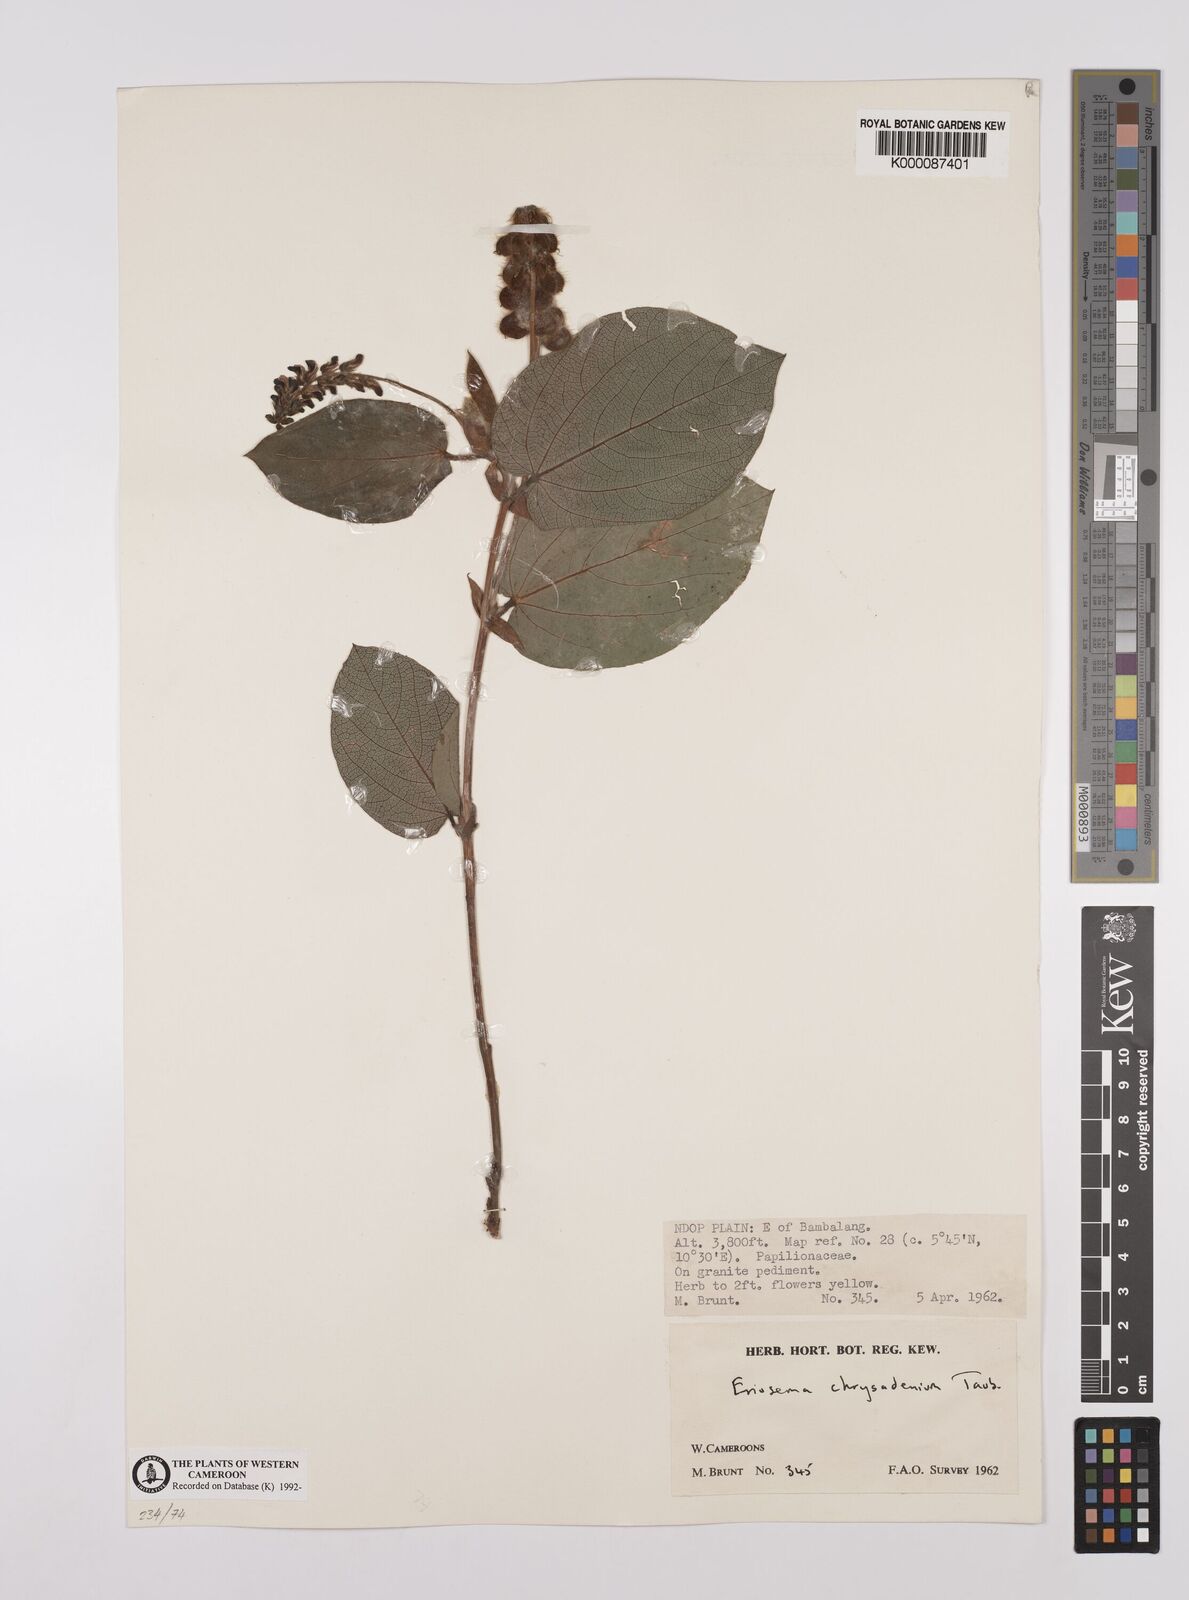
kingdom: Plantae
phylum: Tracheophyta
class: Magnoliopsida
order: Fabales
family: Fabaceae
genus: Eriosema
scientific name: Eriosema chrysadenium
